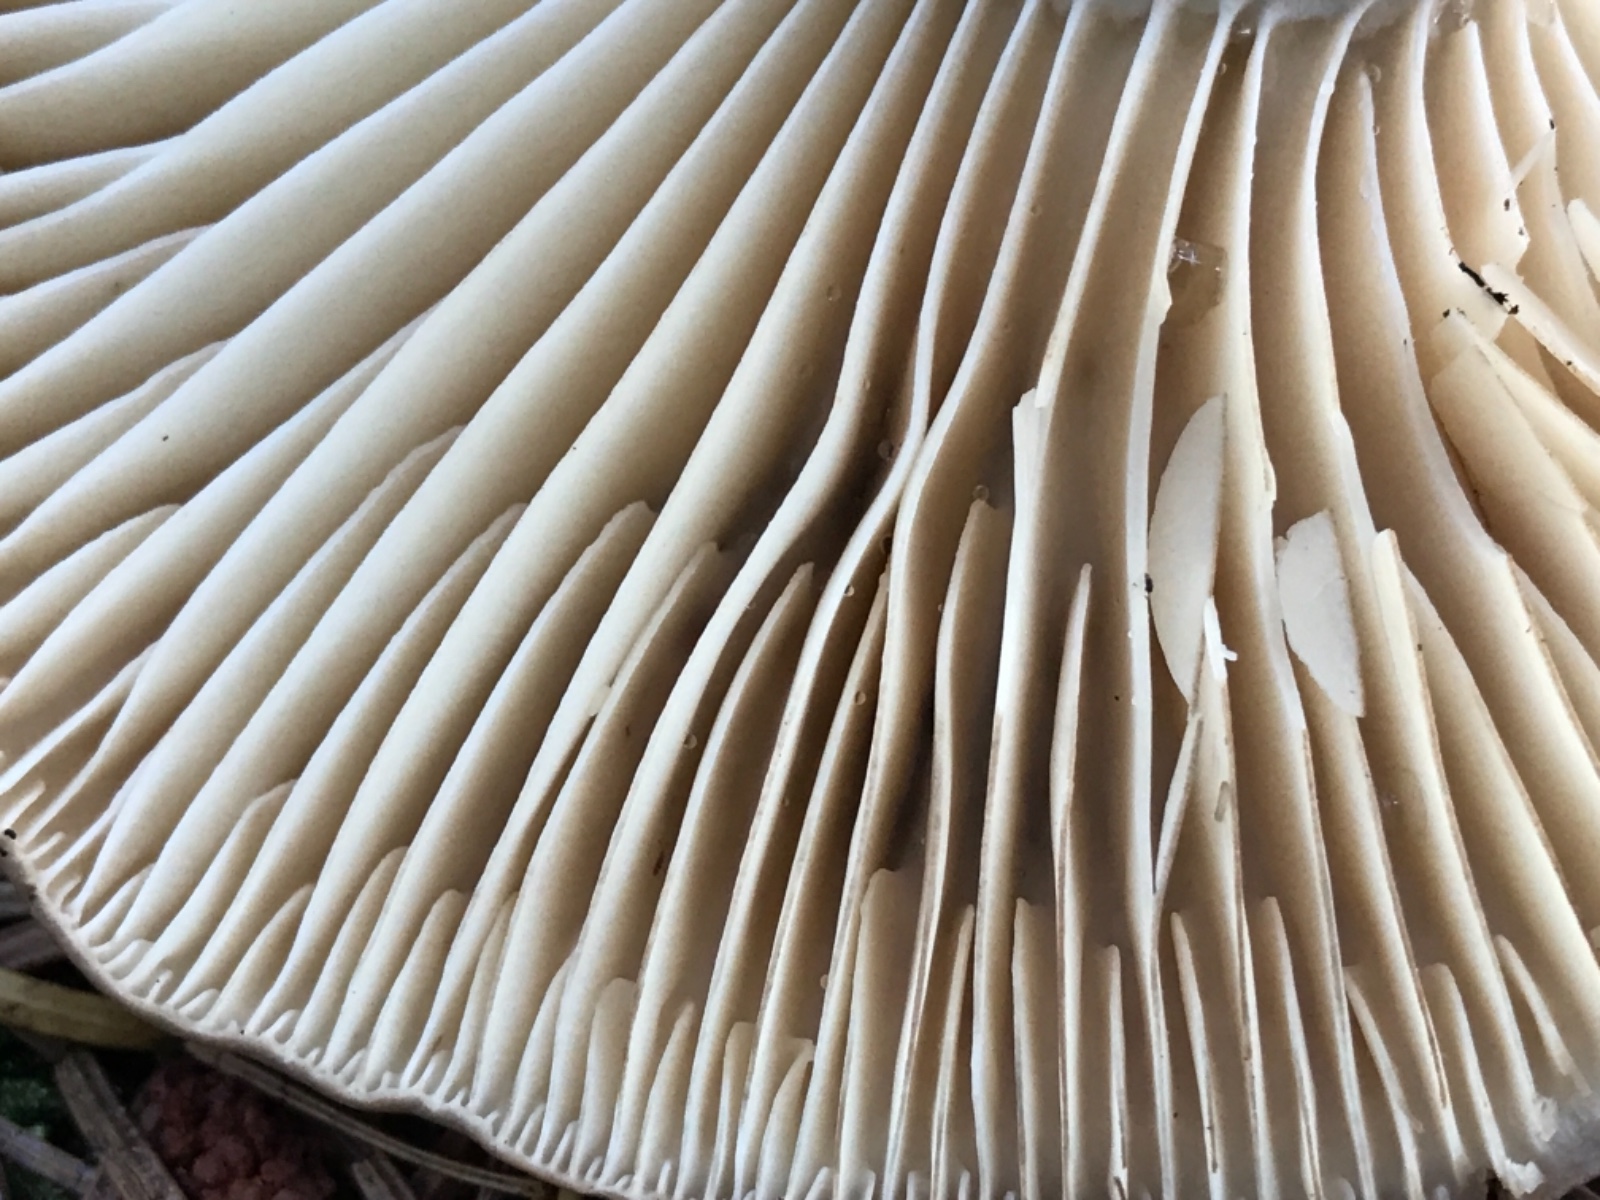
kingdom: Fungi
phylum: Basidiomycota
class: Agaricomycetes
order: Russulales
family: Russulaceae
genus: Russula
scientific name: Russula adusta
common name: sværtende skørhat
